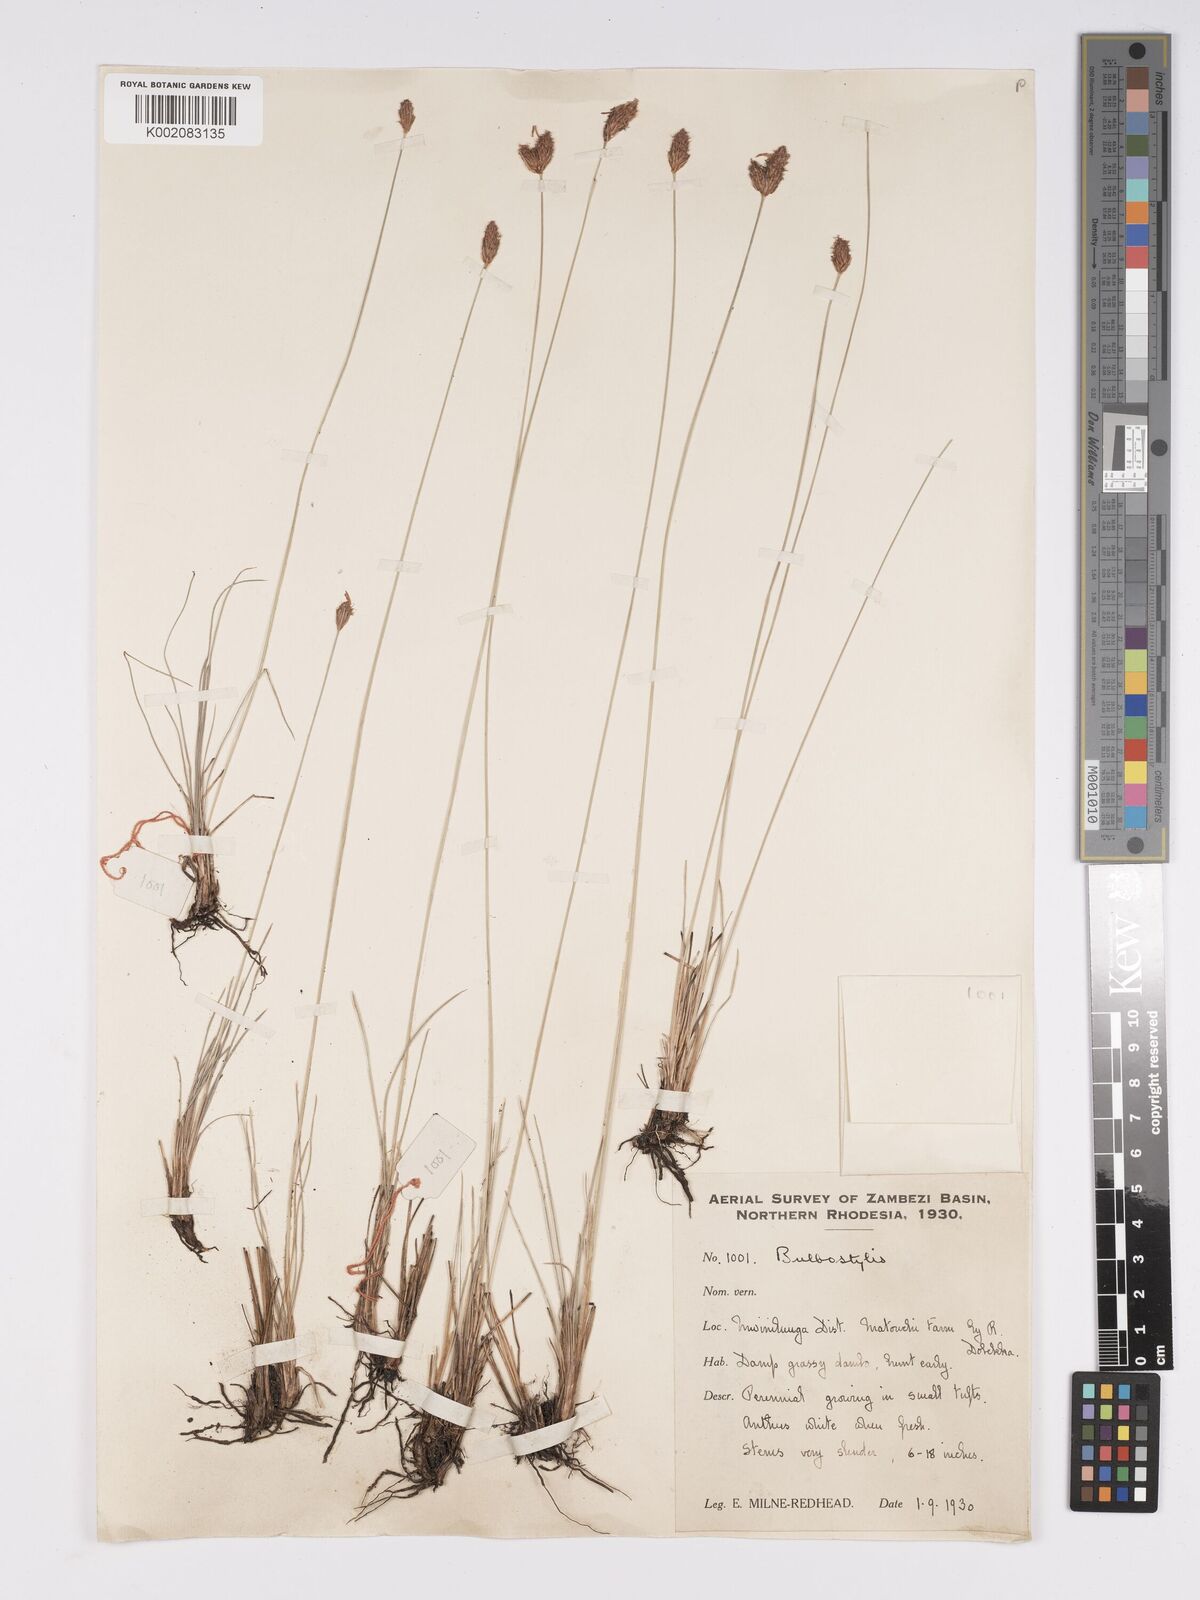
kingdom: Plantae
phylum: Tracheophyta
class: Liliopsida
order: Poales
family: Cyperaceae
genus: Bulbostylis
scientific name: Bulbostylis schoenoides
